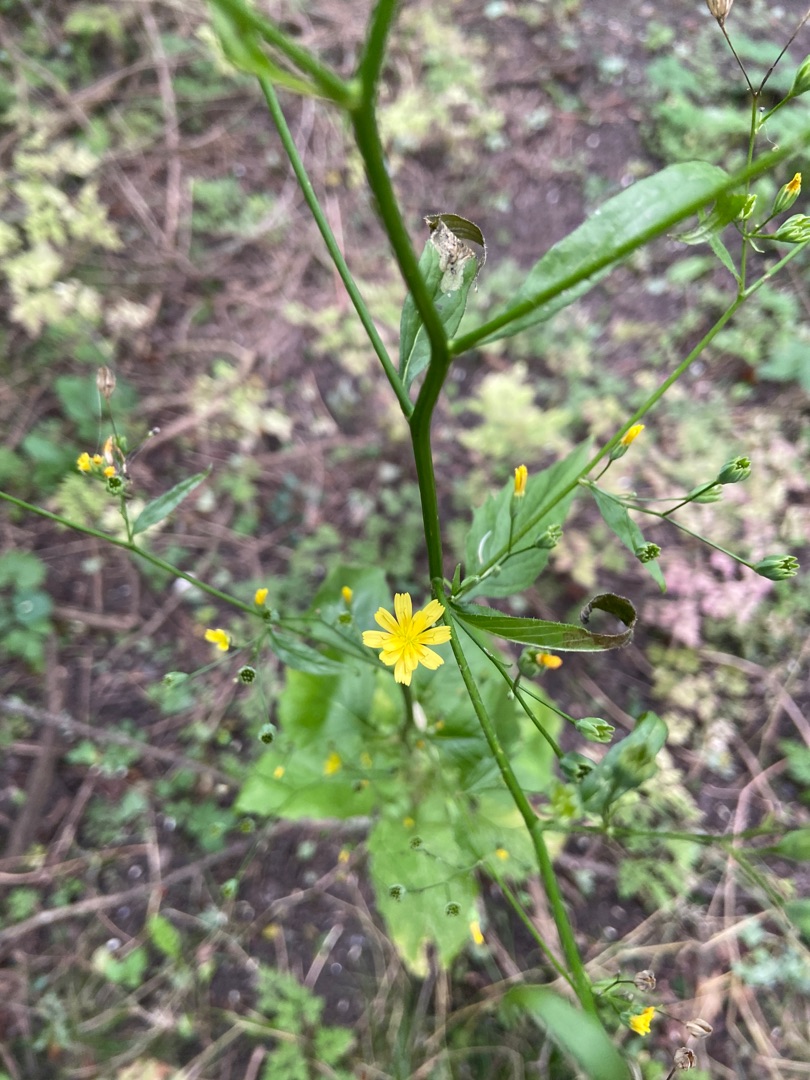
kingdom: Plantae
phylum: Tracheophyta
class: Magnoliopsida
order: Asterales
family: Asteraceae
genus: Lapsana
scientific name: Lapsana communis
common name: Haremad
